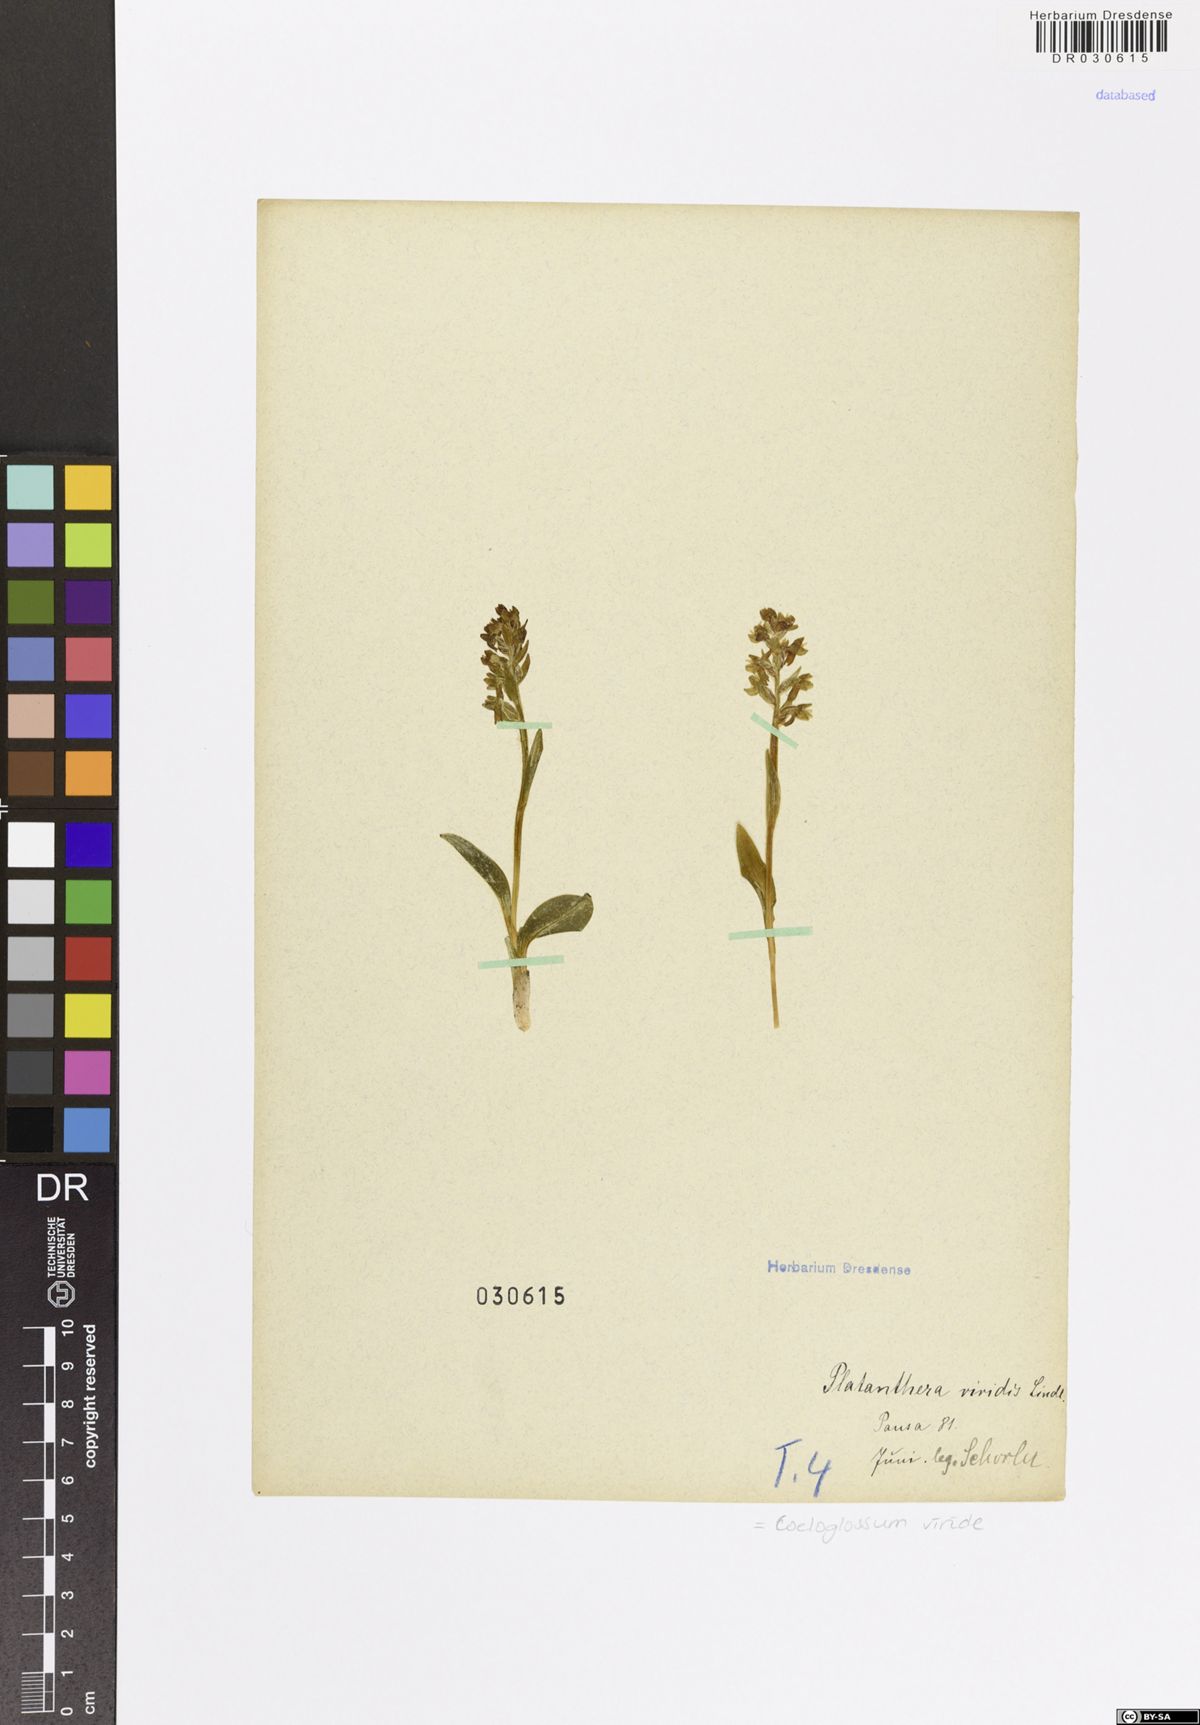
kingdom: Plantae
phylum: Tracheophyta
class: Liliopsida
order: Asparagales
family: Orchidaceae
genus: Dactylorhiza
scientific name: Dactylorhiza viridis
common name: Longbract frog orchid
